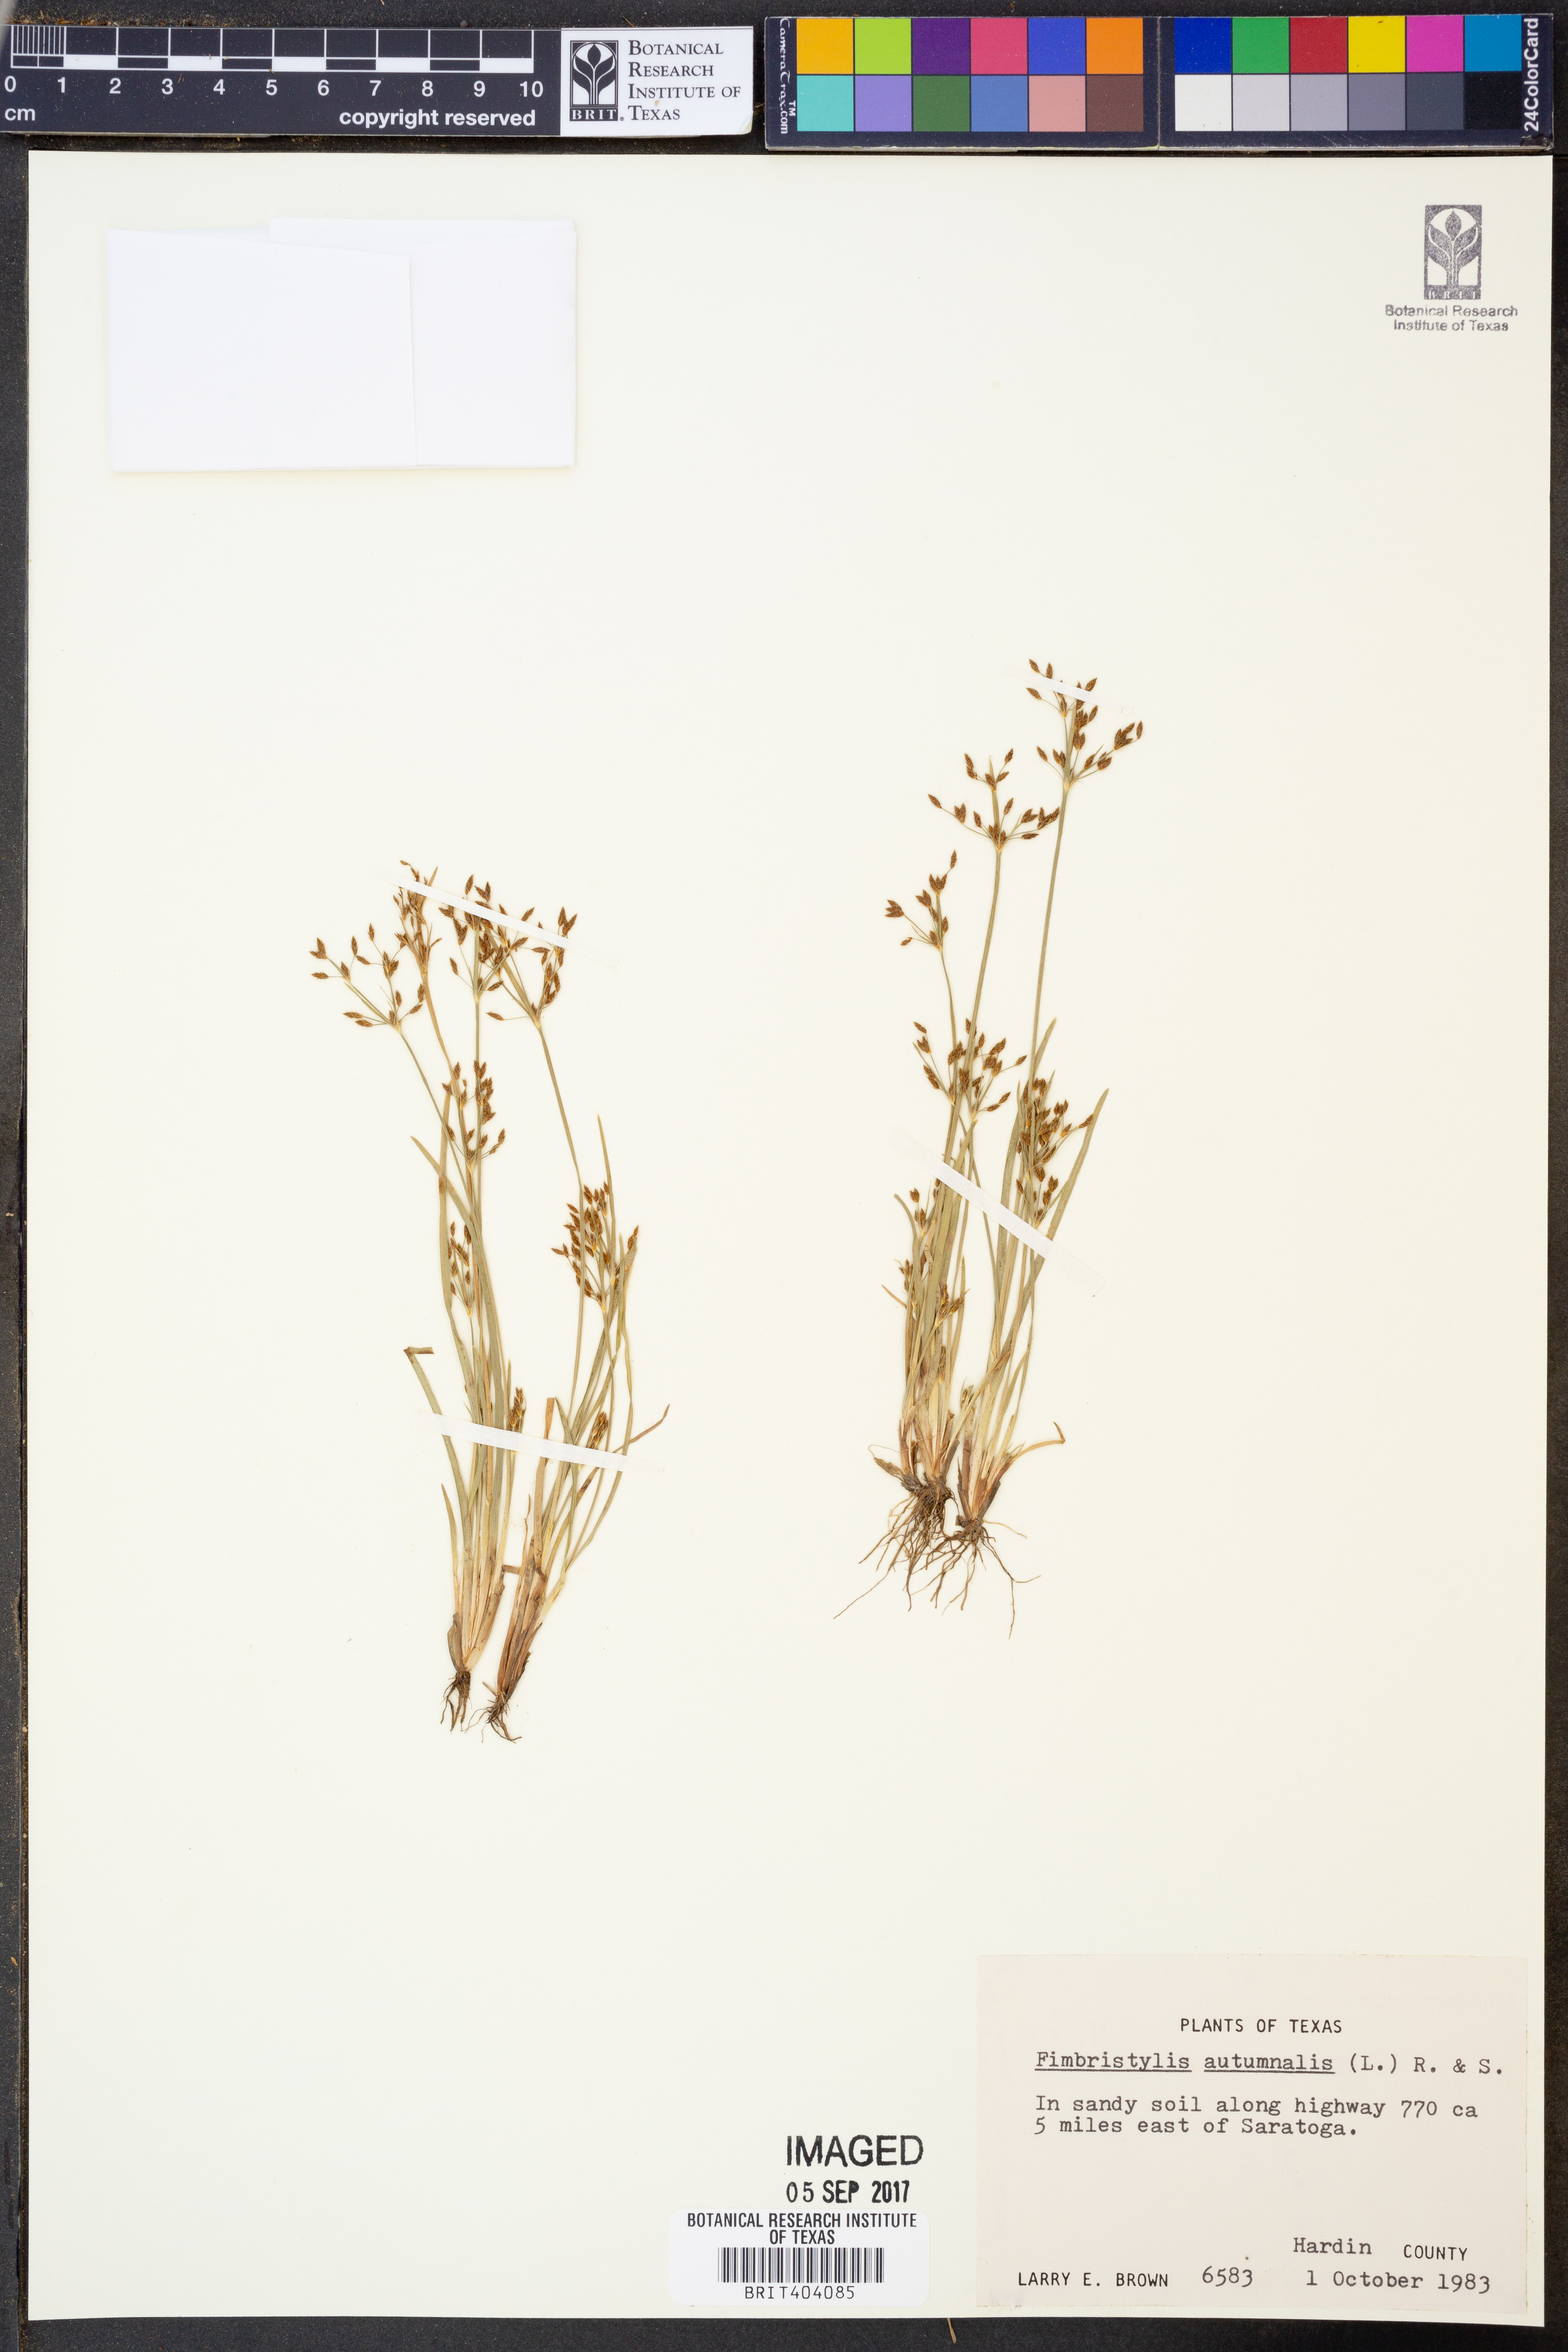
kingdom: Plantae
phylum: Tracheophyta
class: Liliopsida
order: Poales
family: Cyperaceae
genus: Fimbristylis
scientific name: Fimbristylis autumnalis
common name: Slender fimbristylis
